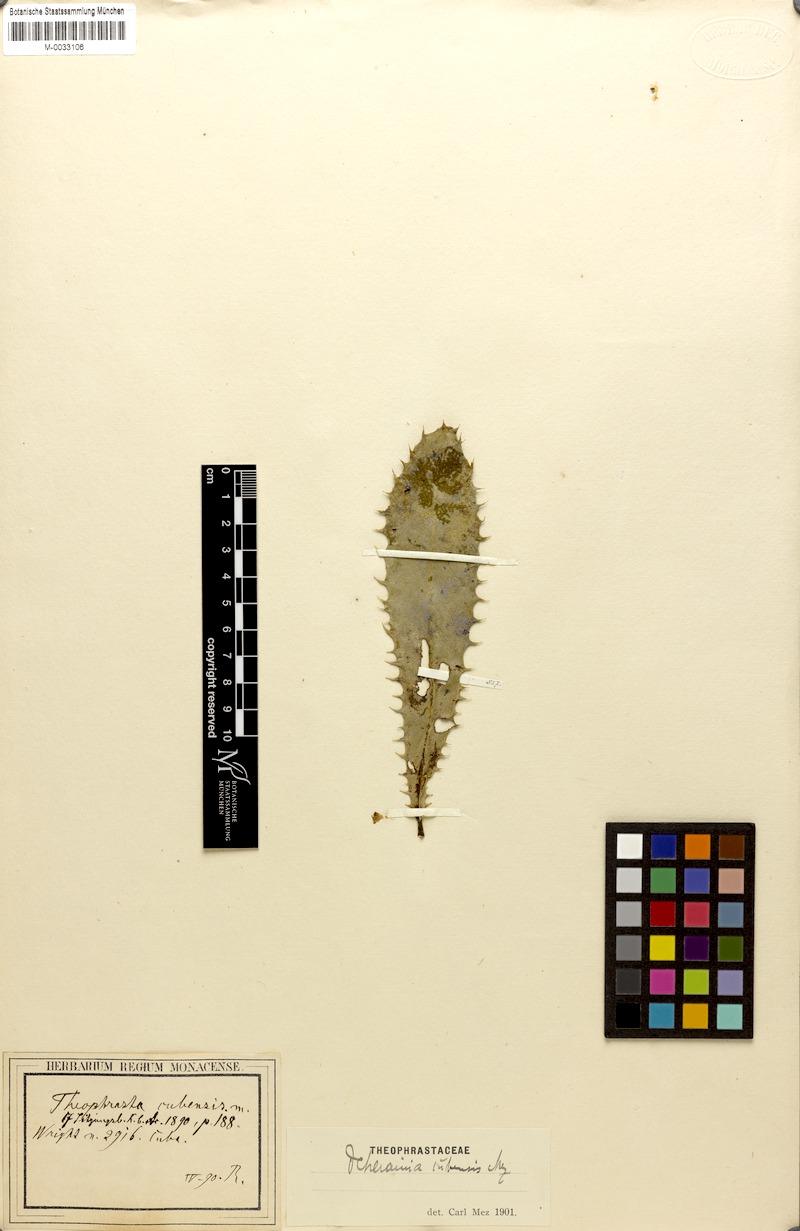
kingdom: Plantae
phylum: Tracheophyta
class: Magnoliopsida
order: Ericales
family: Primulaceae
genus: Neomezia
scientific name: Neomezia cubensis
